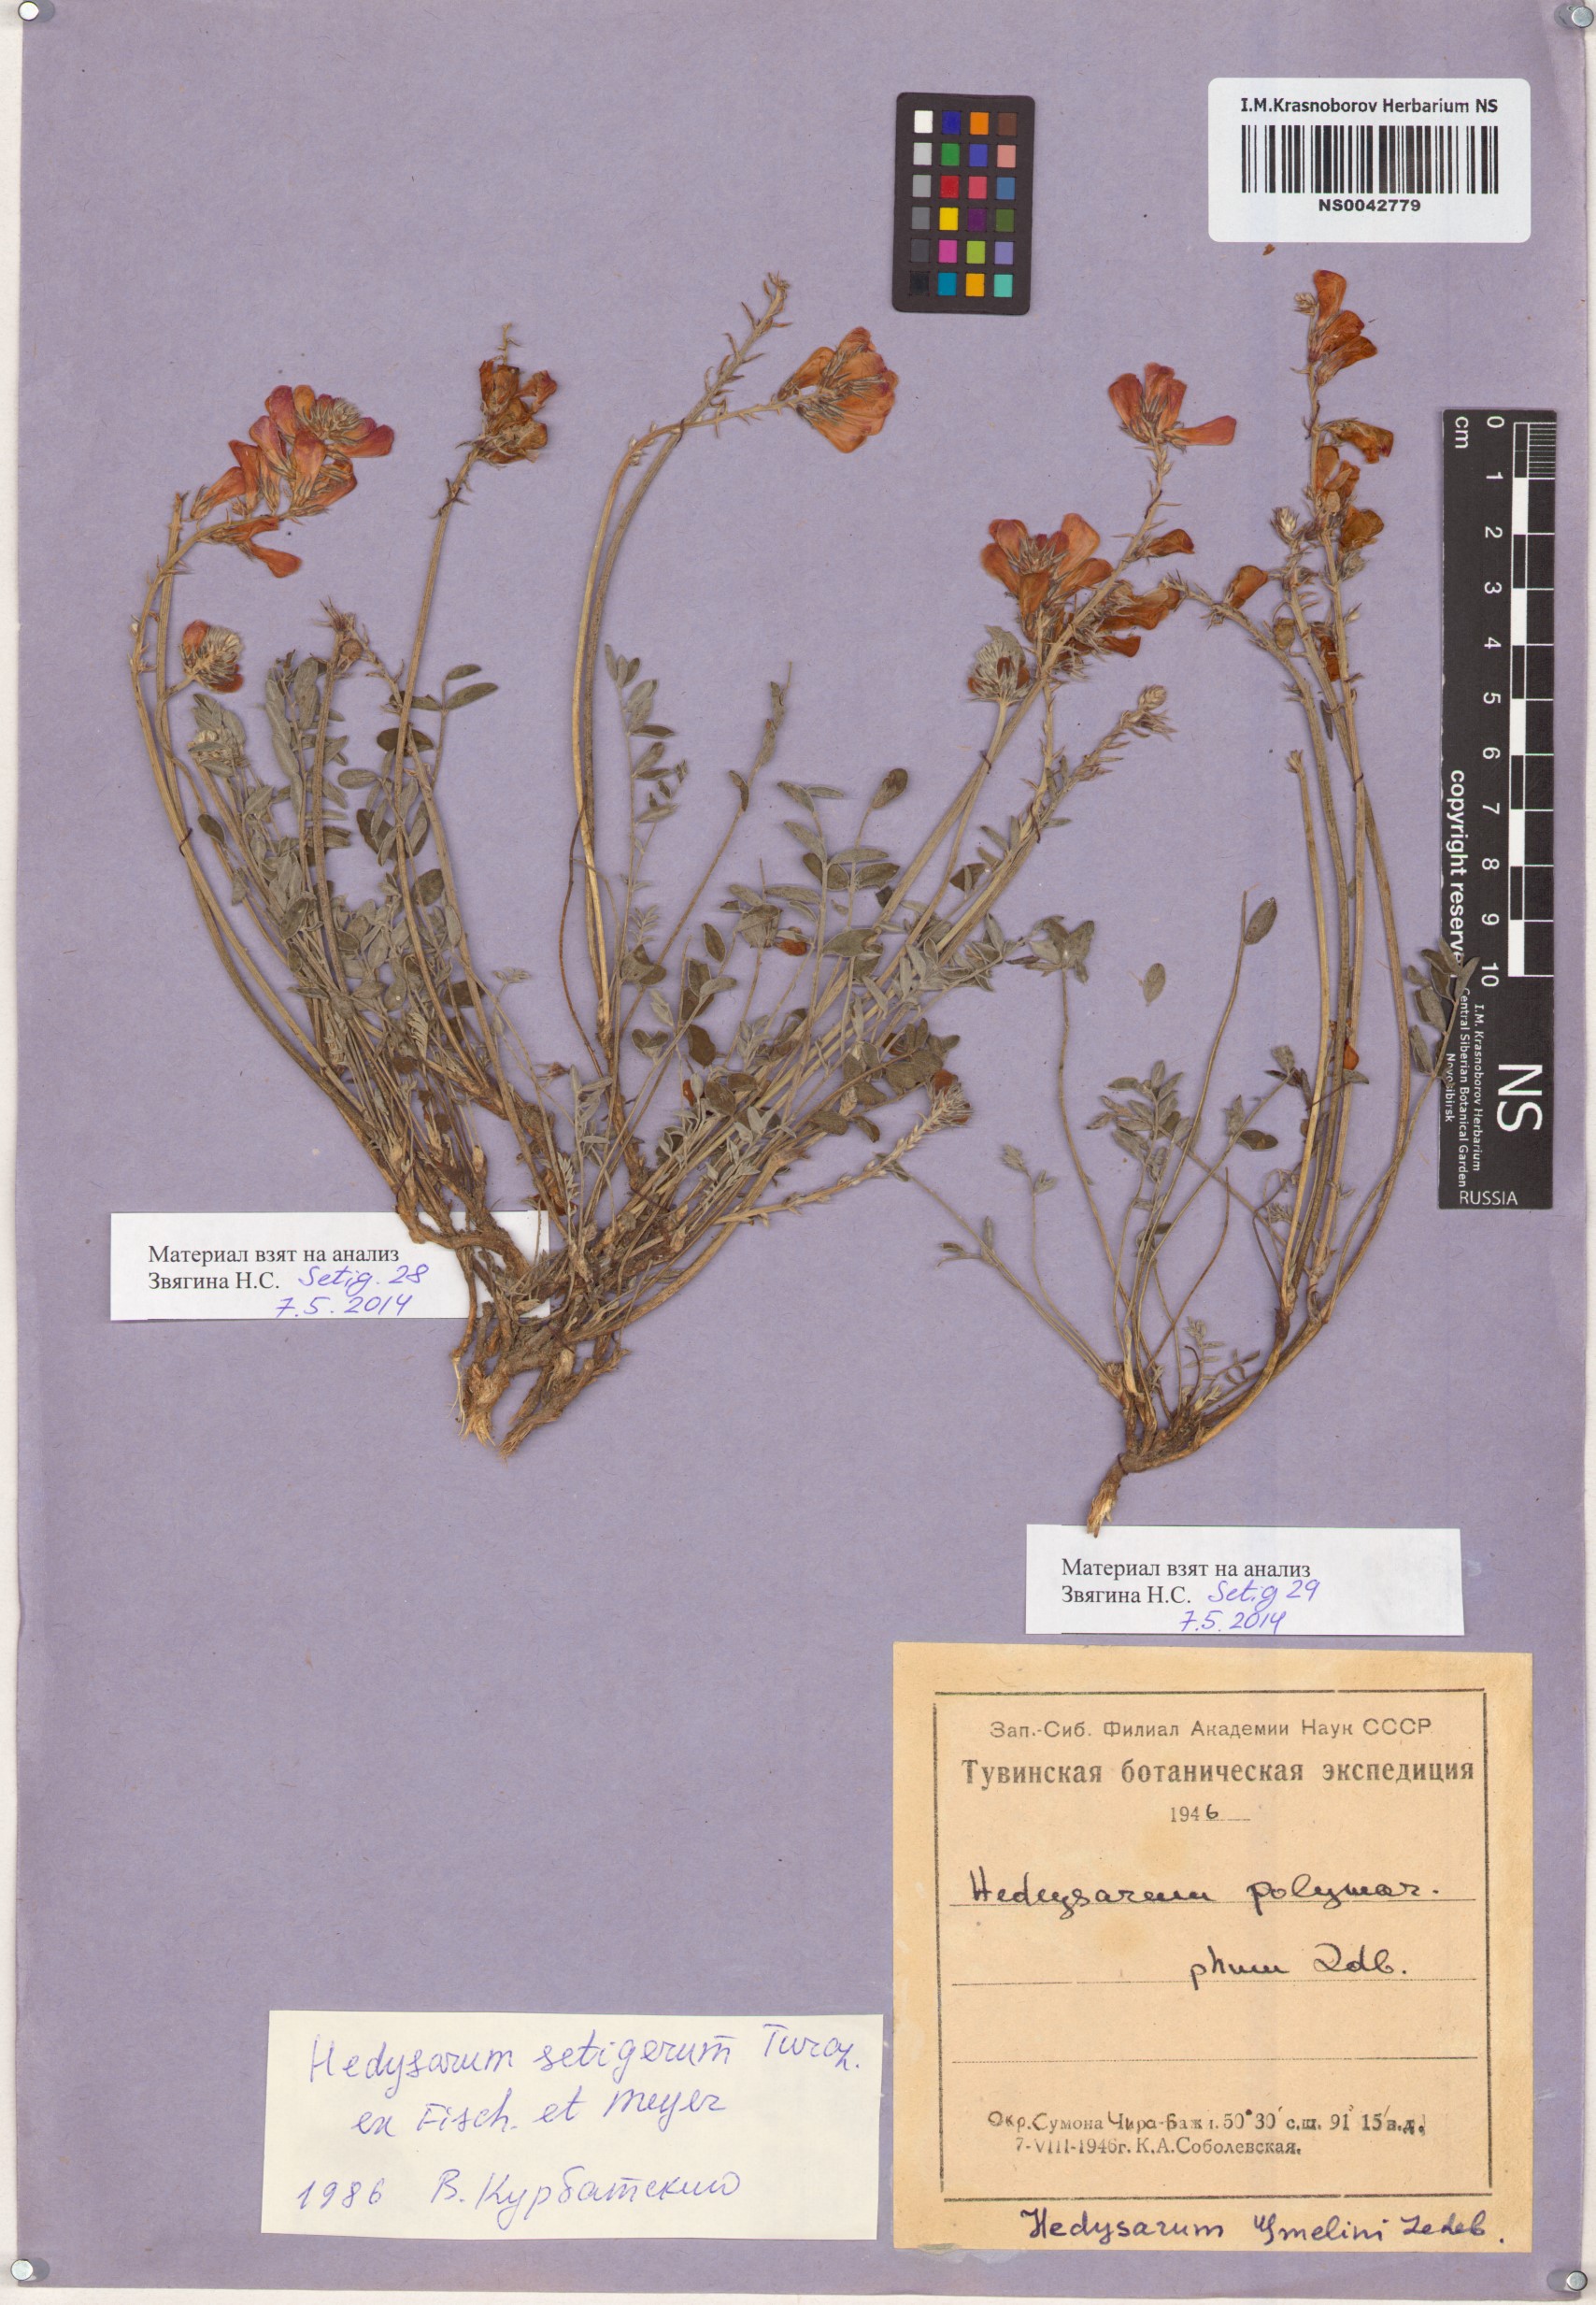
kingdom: Plantae
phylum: Tracheophyta
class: Magnoliopsida
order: Fabales
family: Fabaceae
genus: Hedysarum
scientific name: Hedysarum setigerum
